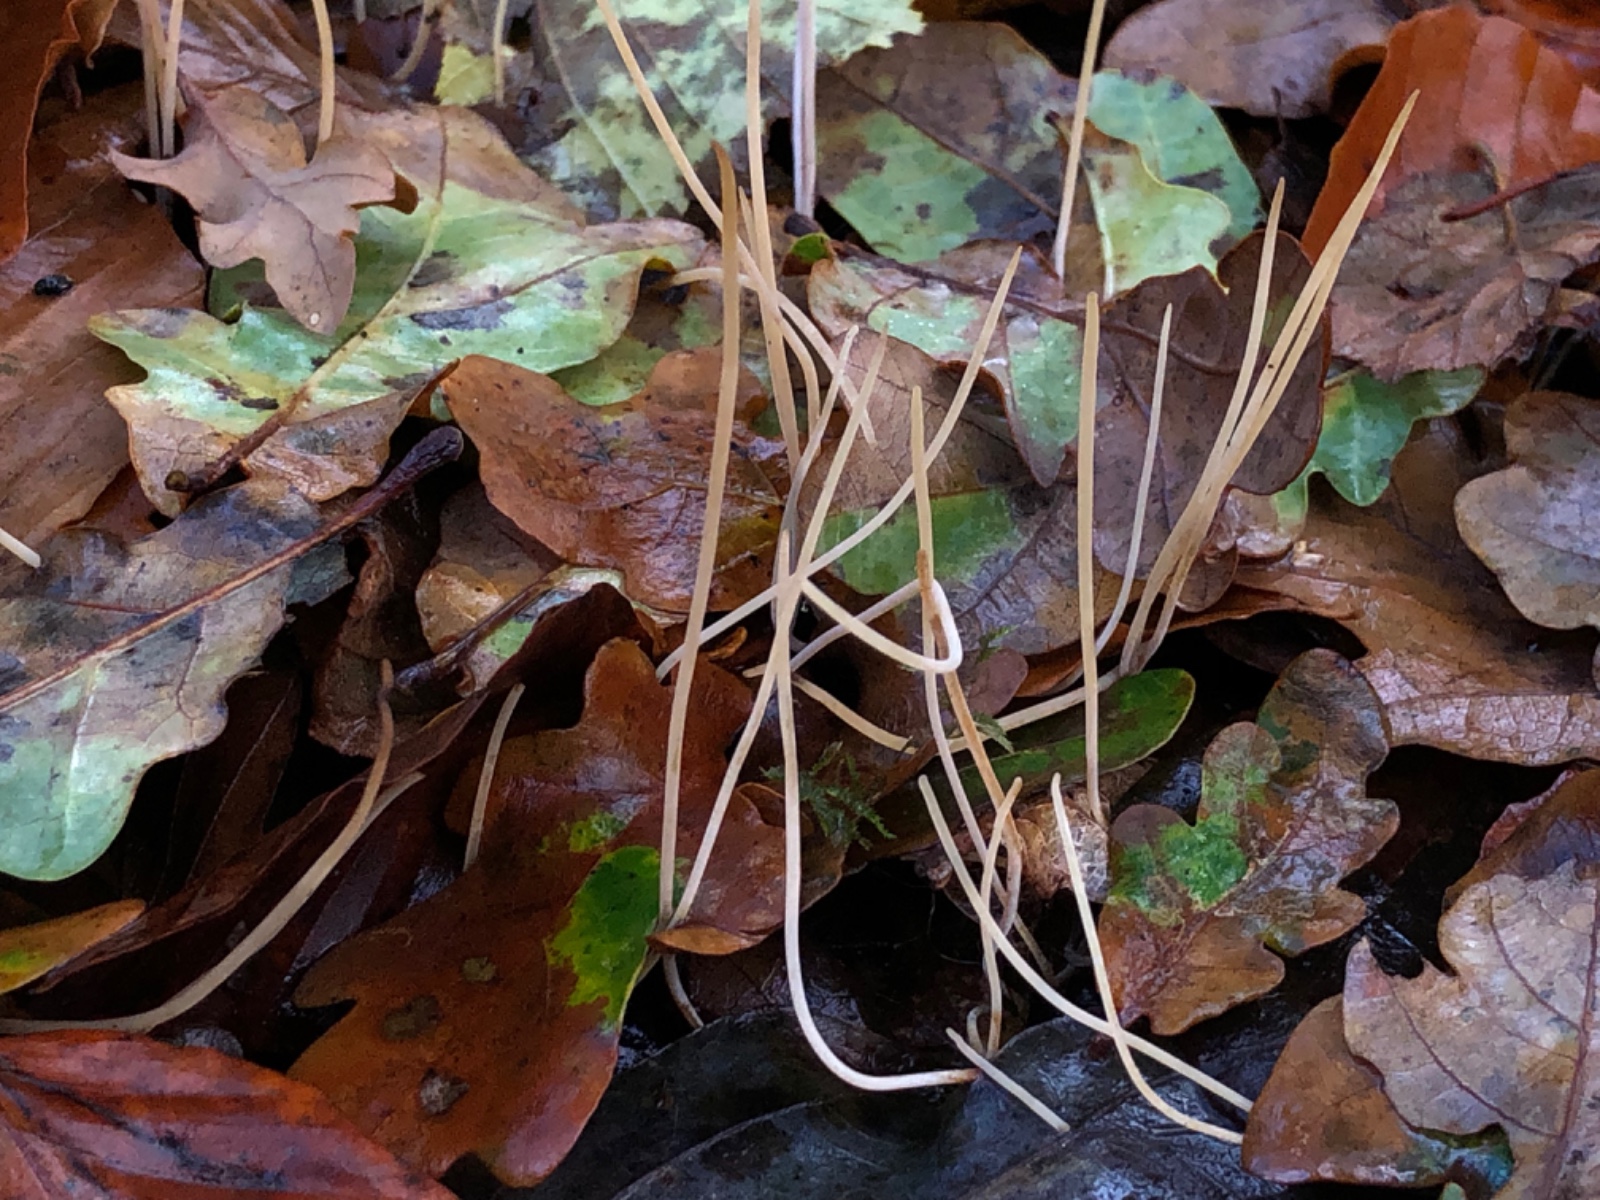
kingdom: Fungi
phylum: Basidiomycota
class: Agaricomycetes
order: Agaricales
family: Typhulaceae
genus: Typhula
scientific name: Typhula juncea
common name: trådagtig rørkølle
